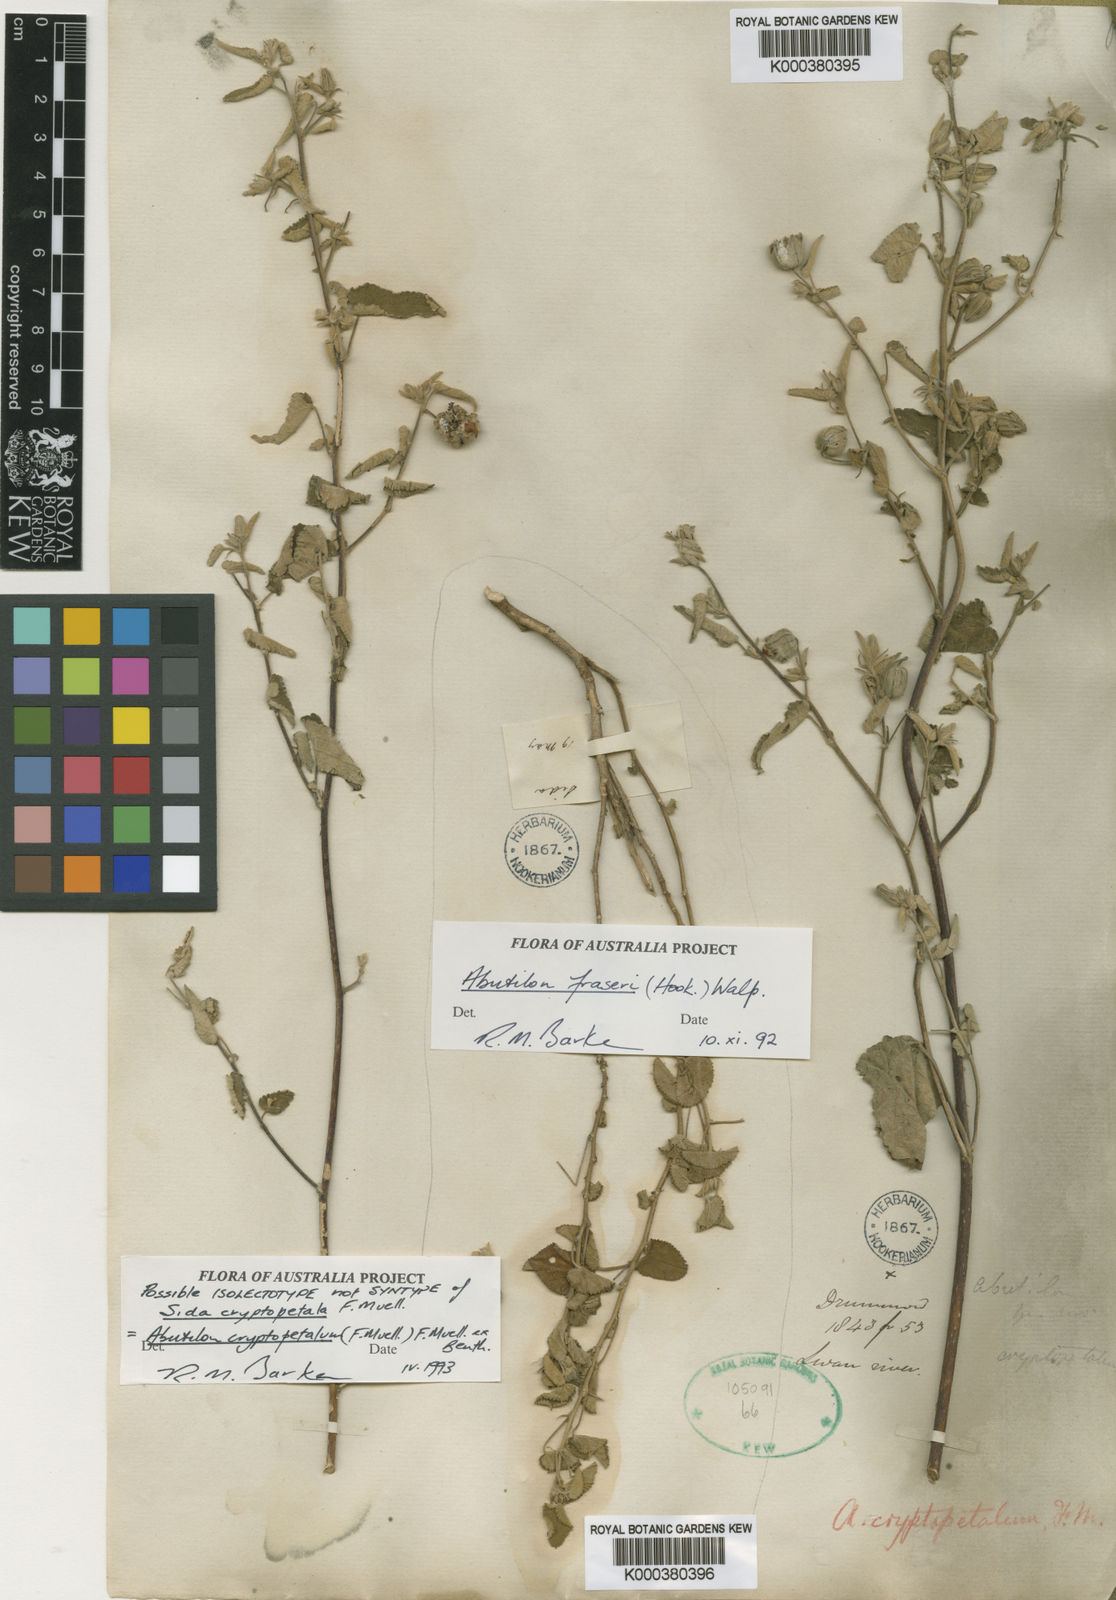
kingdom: Plantae
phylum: Tracheophyta
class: Magnoliopsida
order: Malvales
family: Malvaceae
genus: Abutilon
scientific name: Abutilon cryptopetalum
